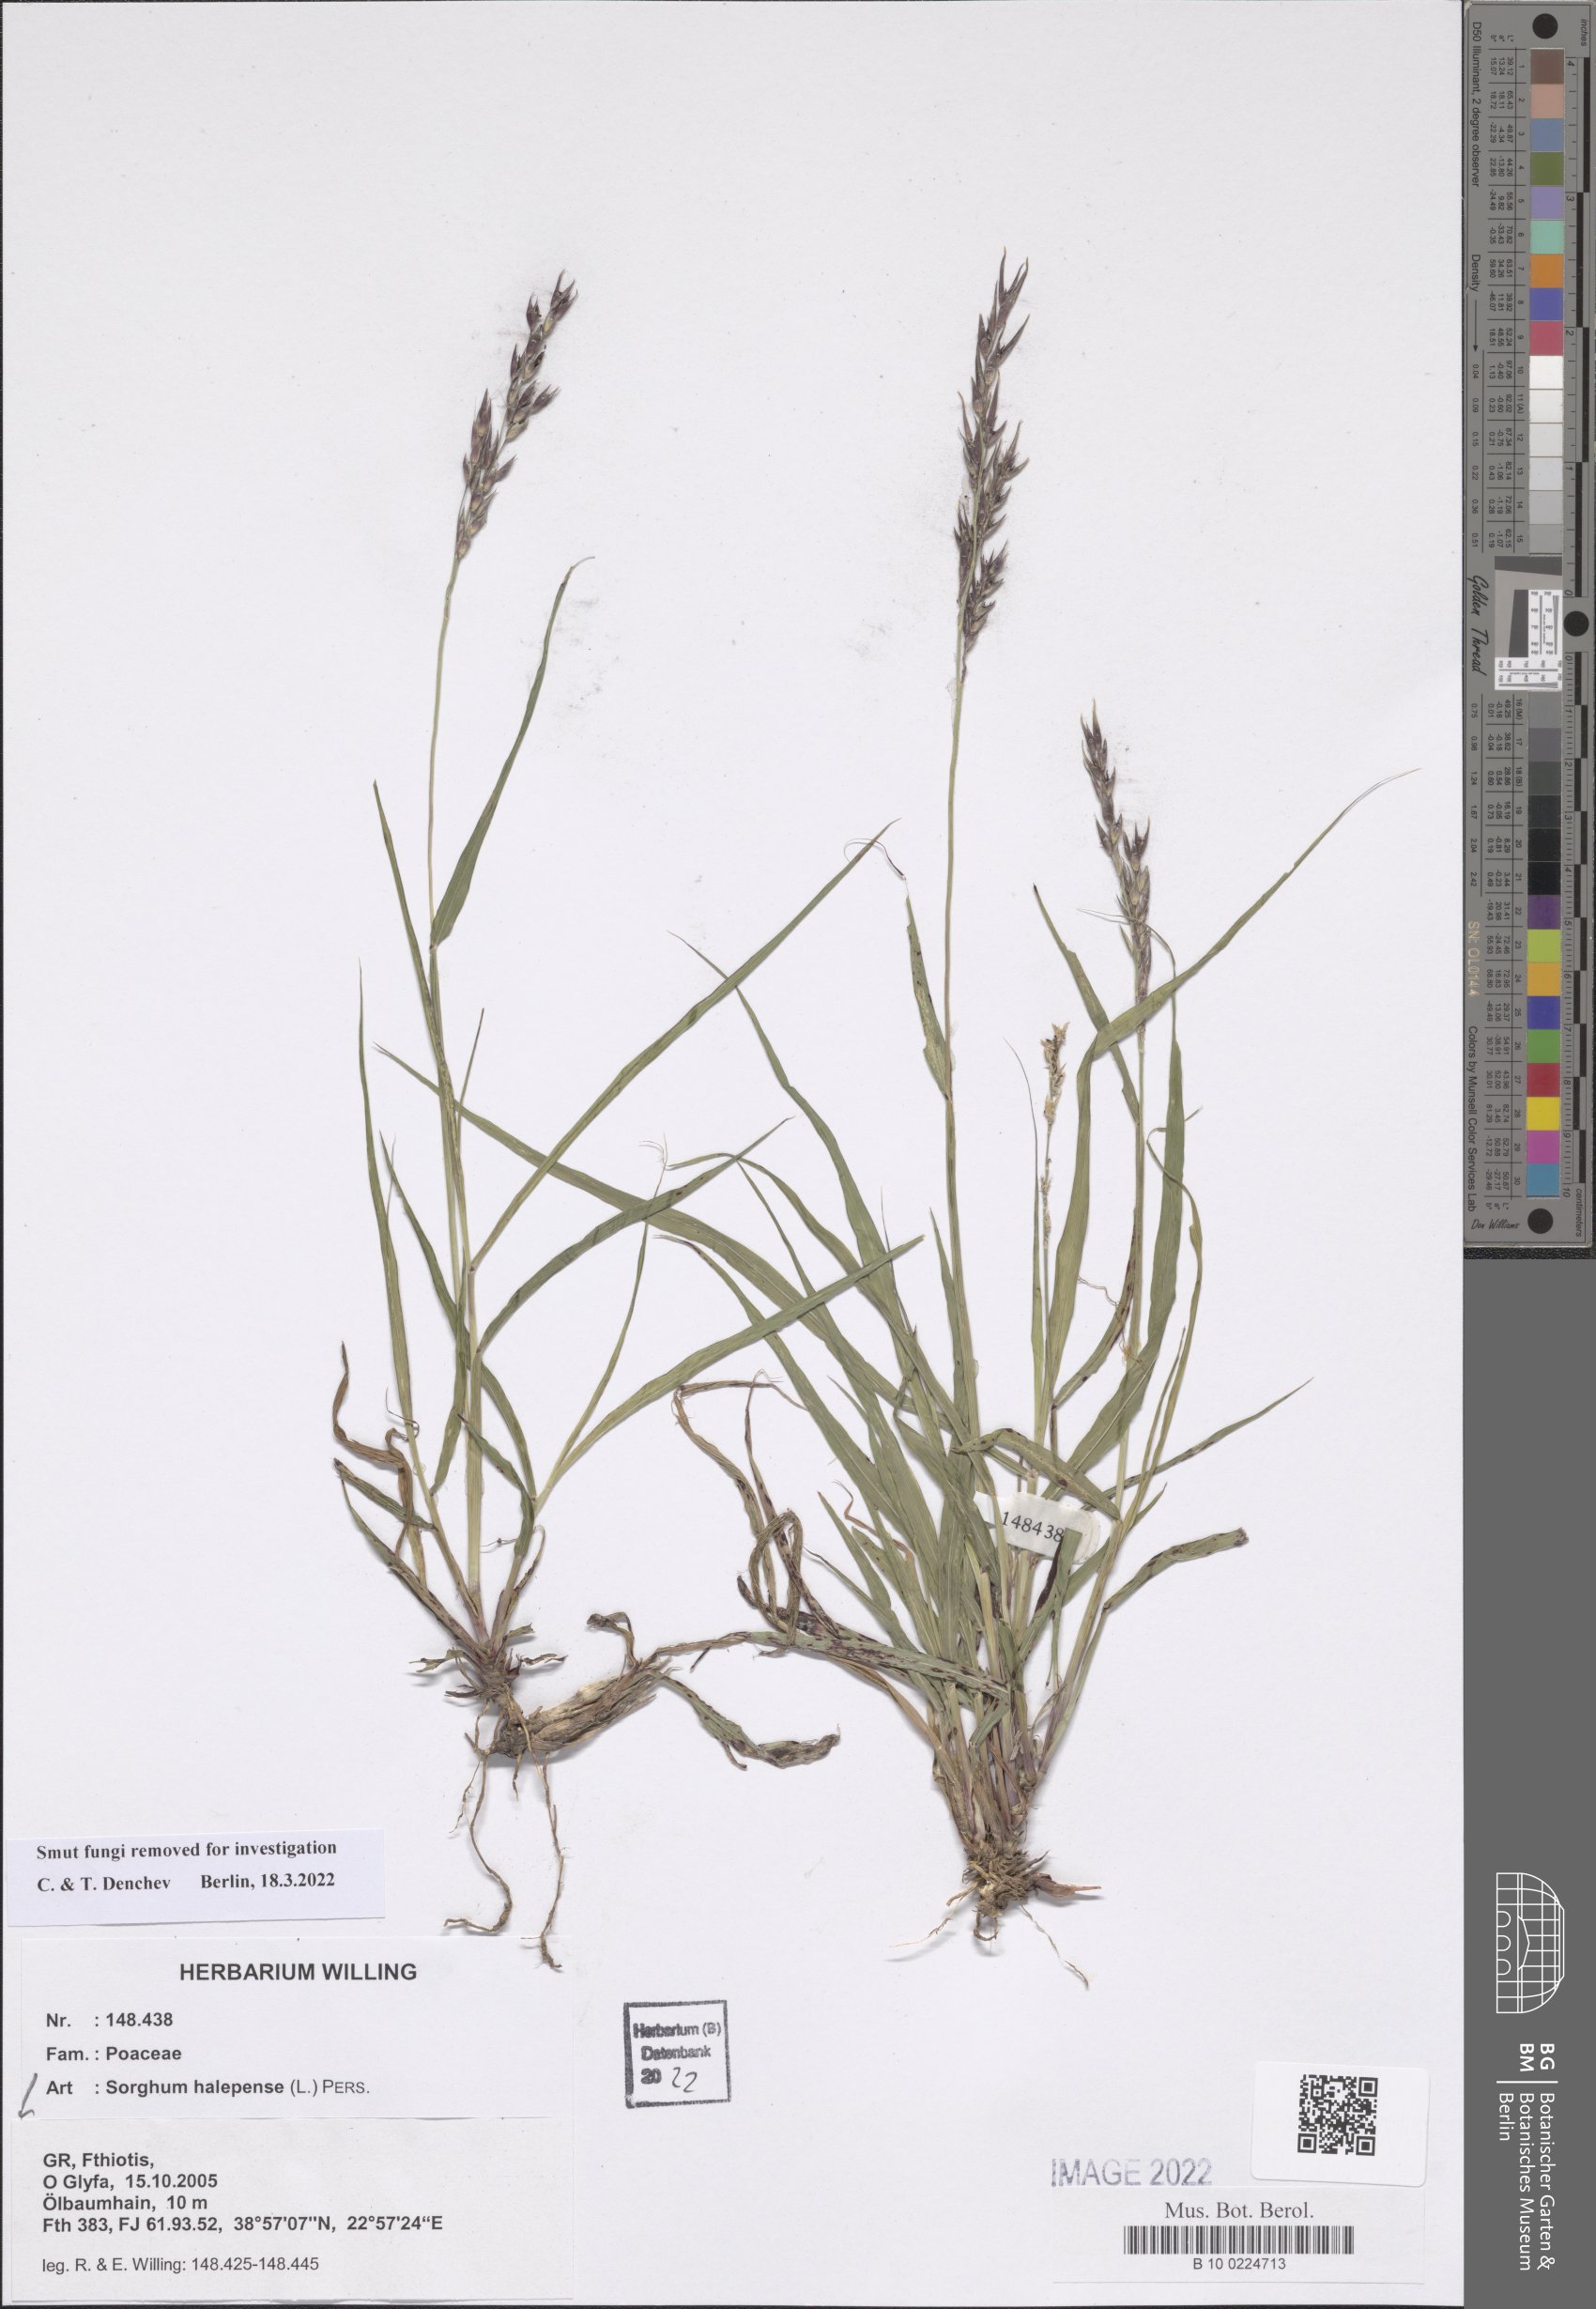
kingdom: Plantae
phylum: Tracheophyta
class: Liliopsida
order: Poales
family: Poaceae
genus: Sorghum
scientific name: Sorghum halepense
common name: Johnson-grass
